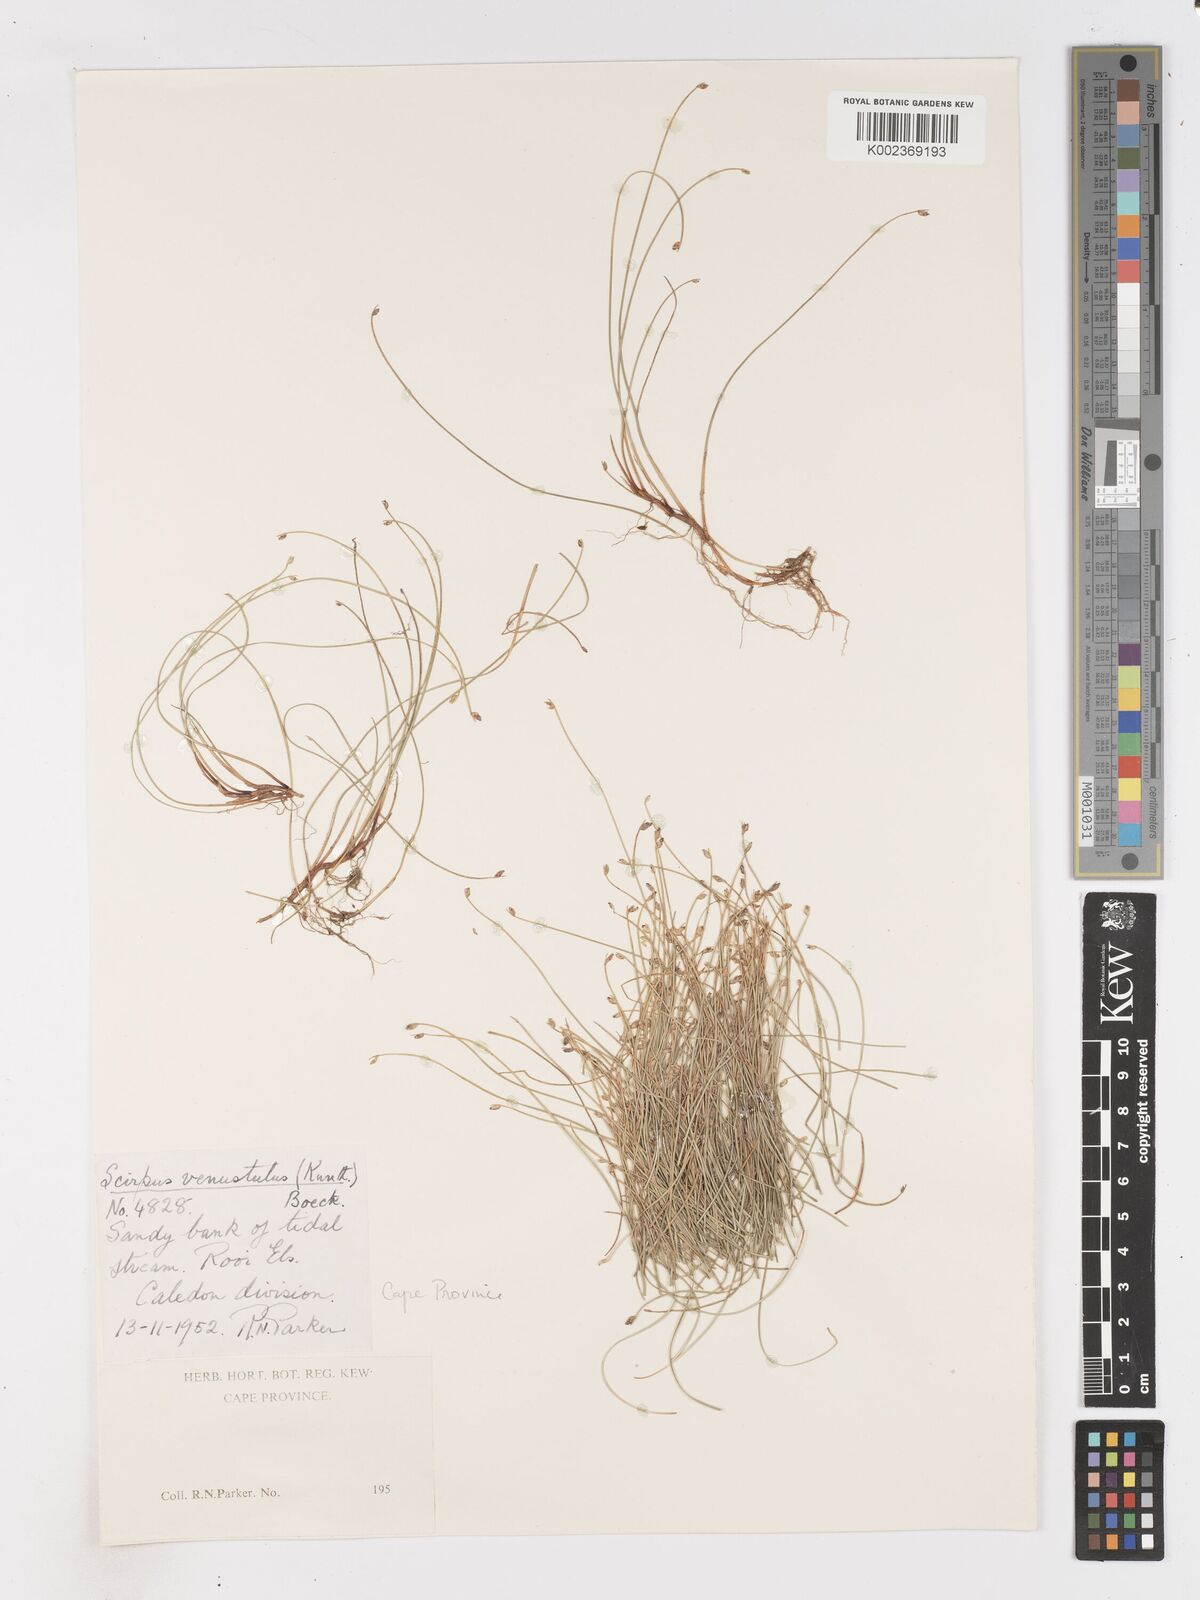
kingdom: Plantae
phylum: Tracheophyta
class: Liliopsida
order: Poales
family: Cyperaceae
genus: Isolepis
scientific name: Isolepis venustula
